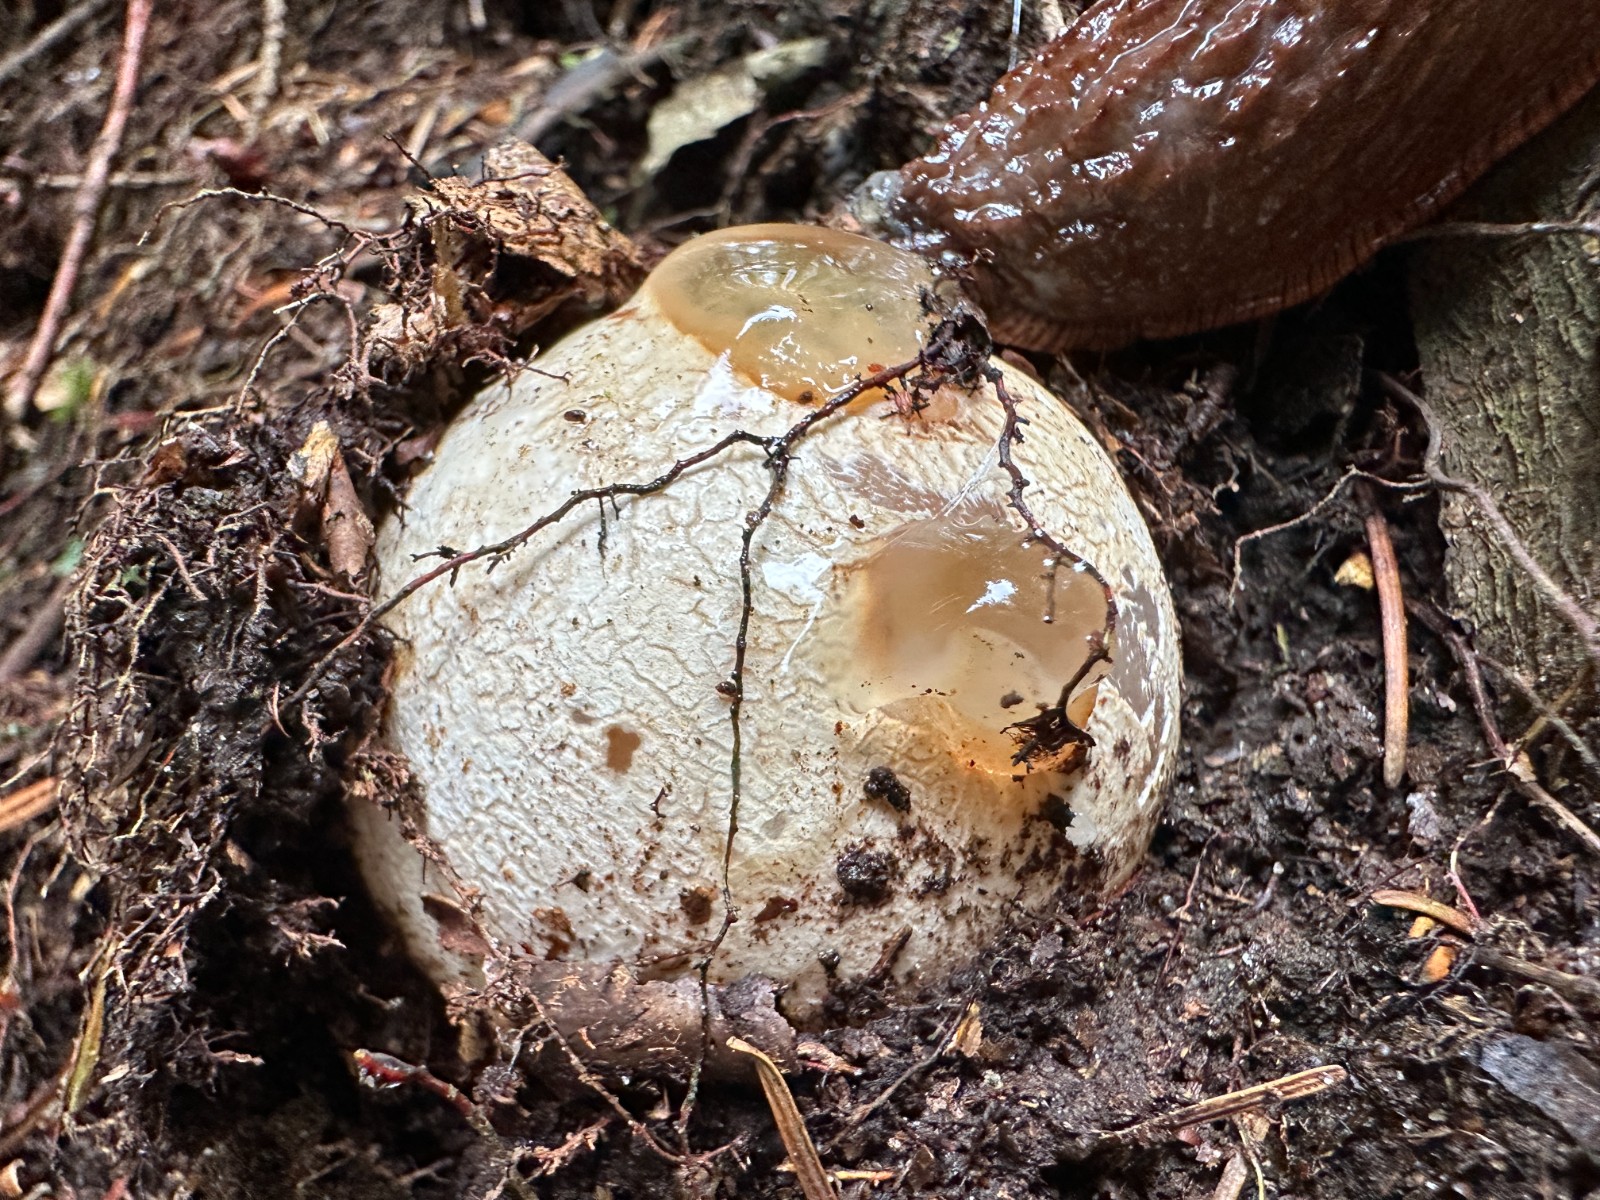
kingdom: Fungi
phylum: Basidiomycota
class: Agaricomycetes
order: Phallales
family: Phallaceae
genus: Phallus
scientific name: Phallus impudicus
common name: almindelig stinksvamp
